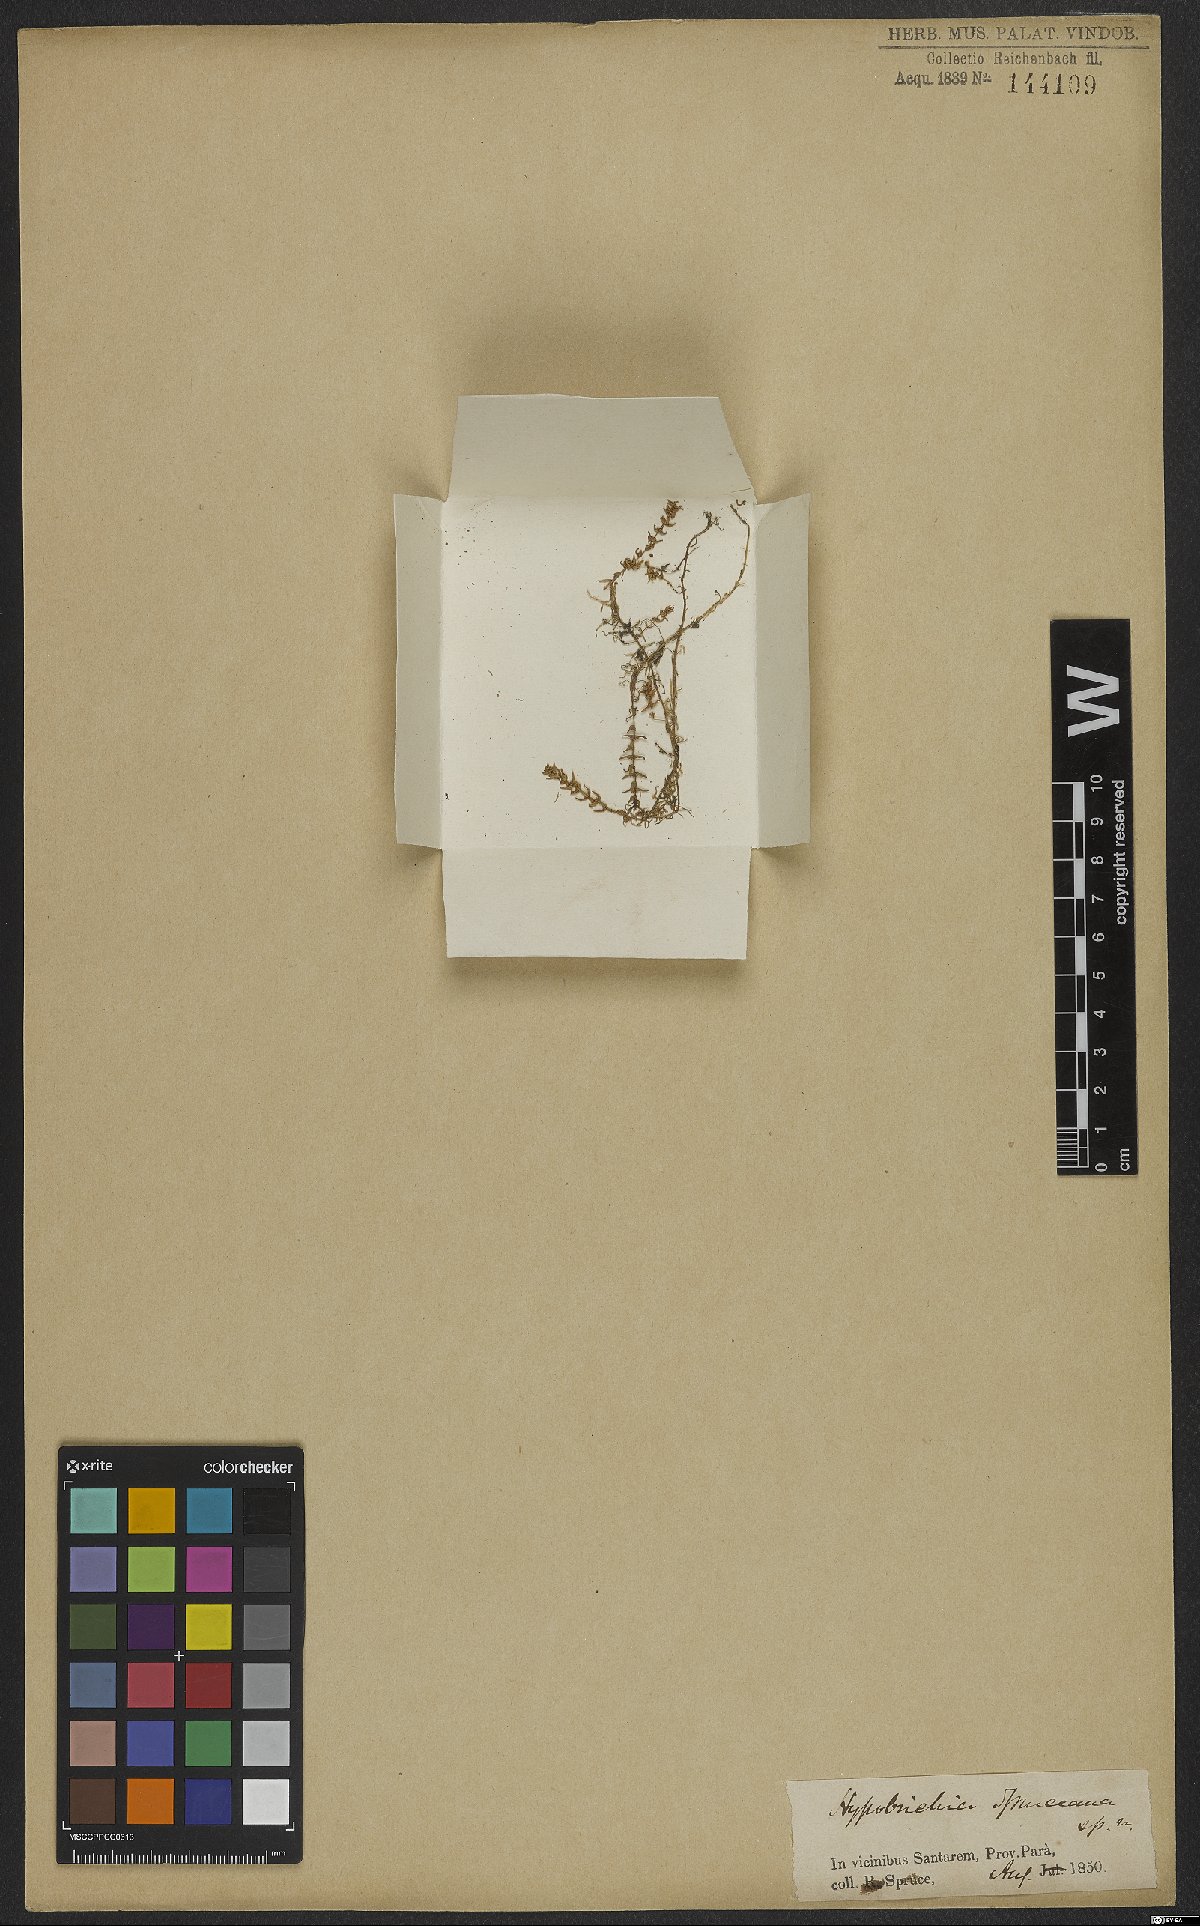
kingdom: Plantae
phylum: Tracheophyta
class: Magnoliopsida
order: Myrtales
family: Lythraceae
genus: Rotala
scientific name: Rotala mexicana
